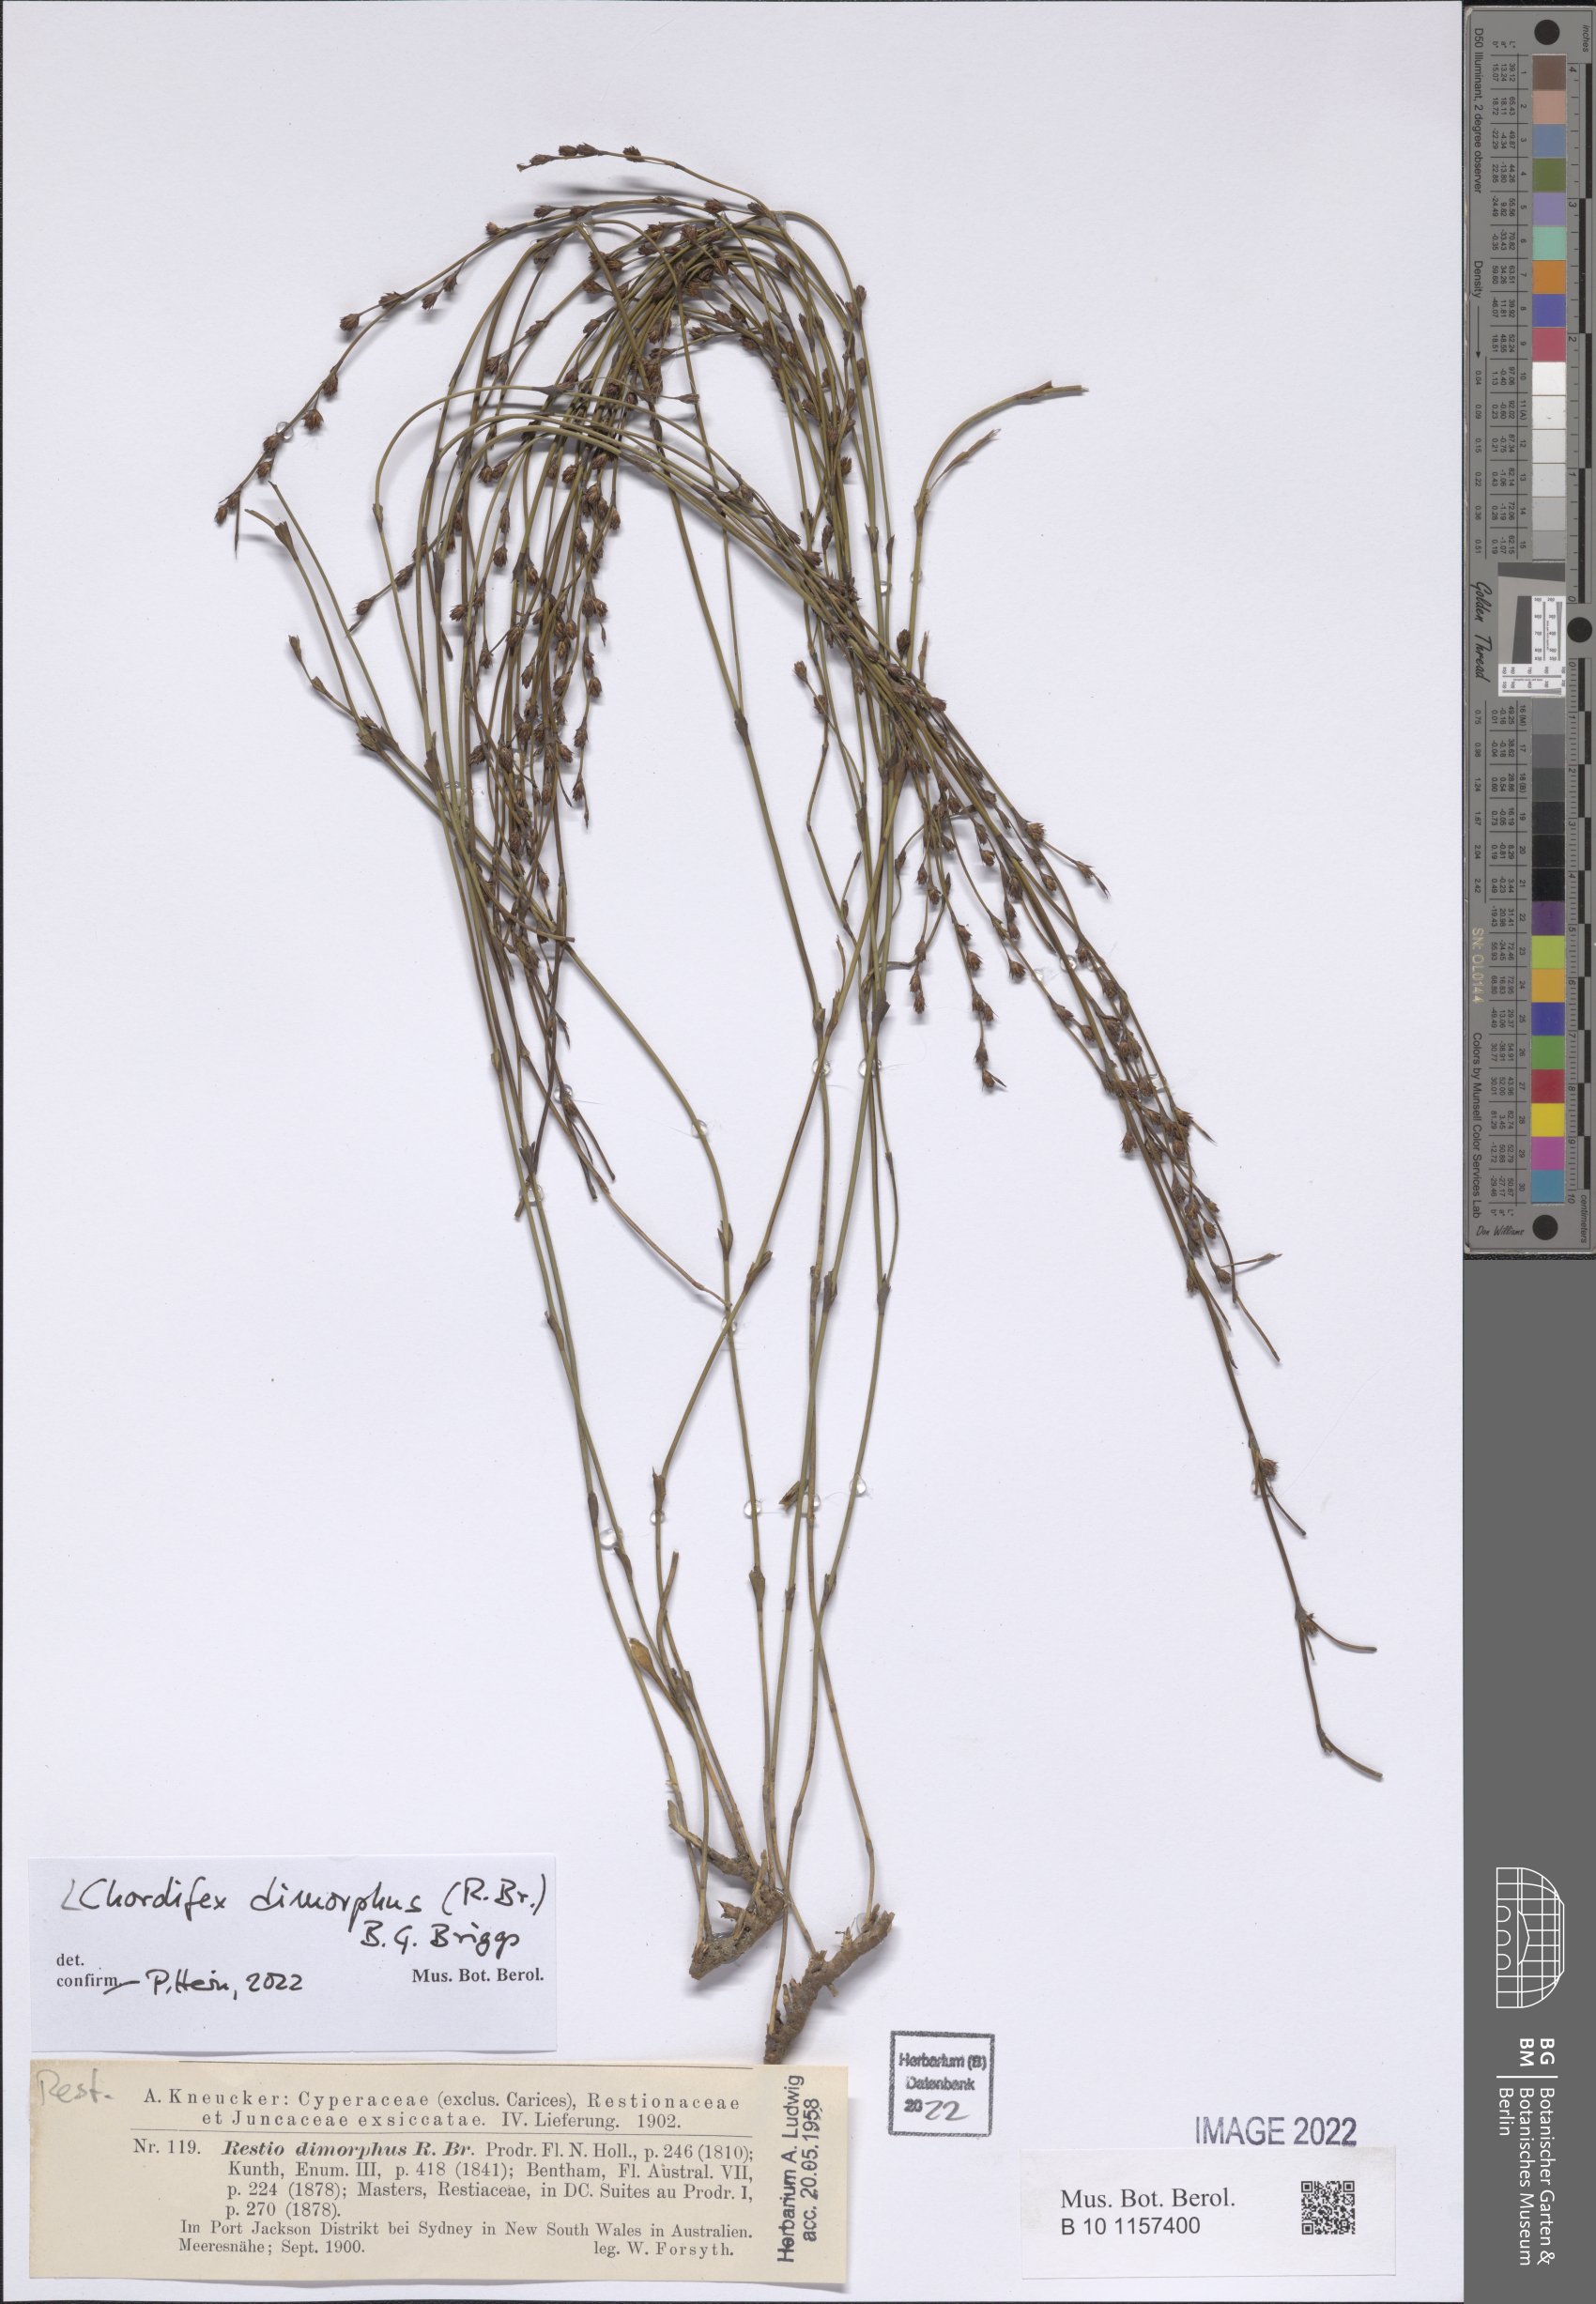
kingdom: Plantae
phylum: Tracheophyta
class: Liliopsida
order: Poales
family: Restionaceae
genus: Chordifex
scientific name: Chordifex dimorphus
